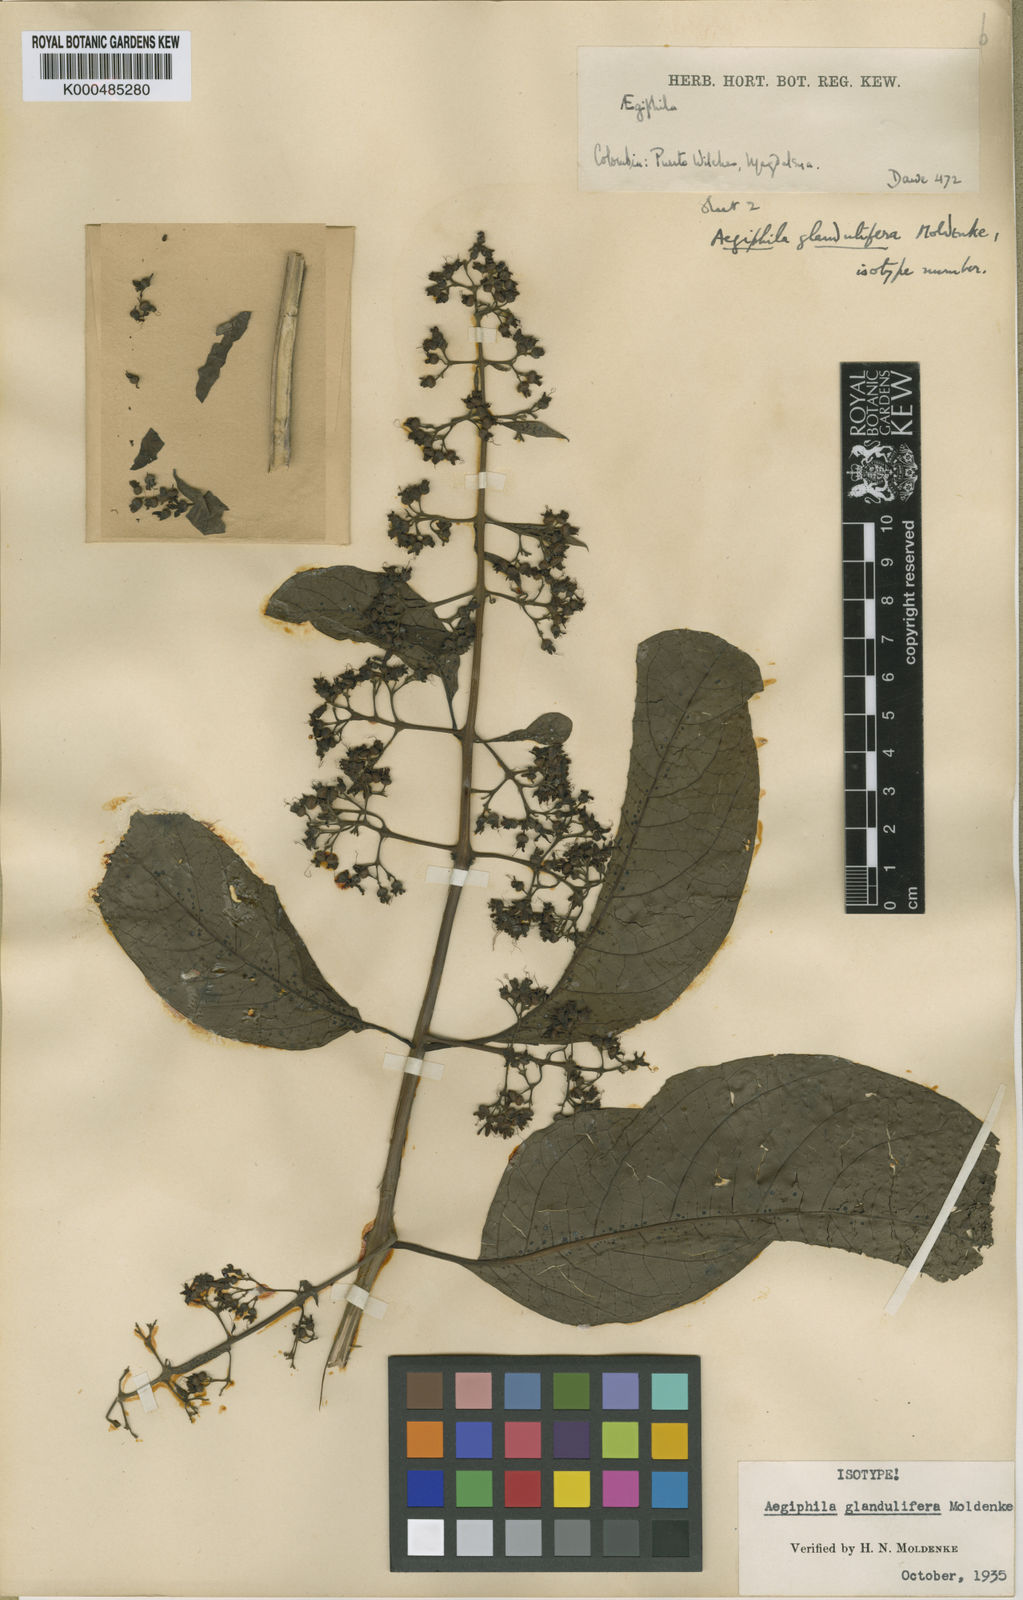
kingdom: Plantae
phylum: Tracheophyta
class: Magnoliopsida
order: Lamiales
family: Lamiaceae
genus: Aegiphila
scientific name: Aegiphila panamensis
